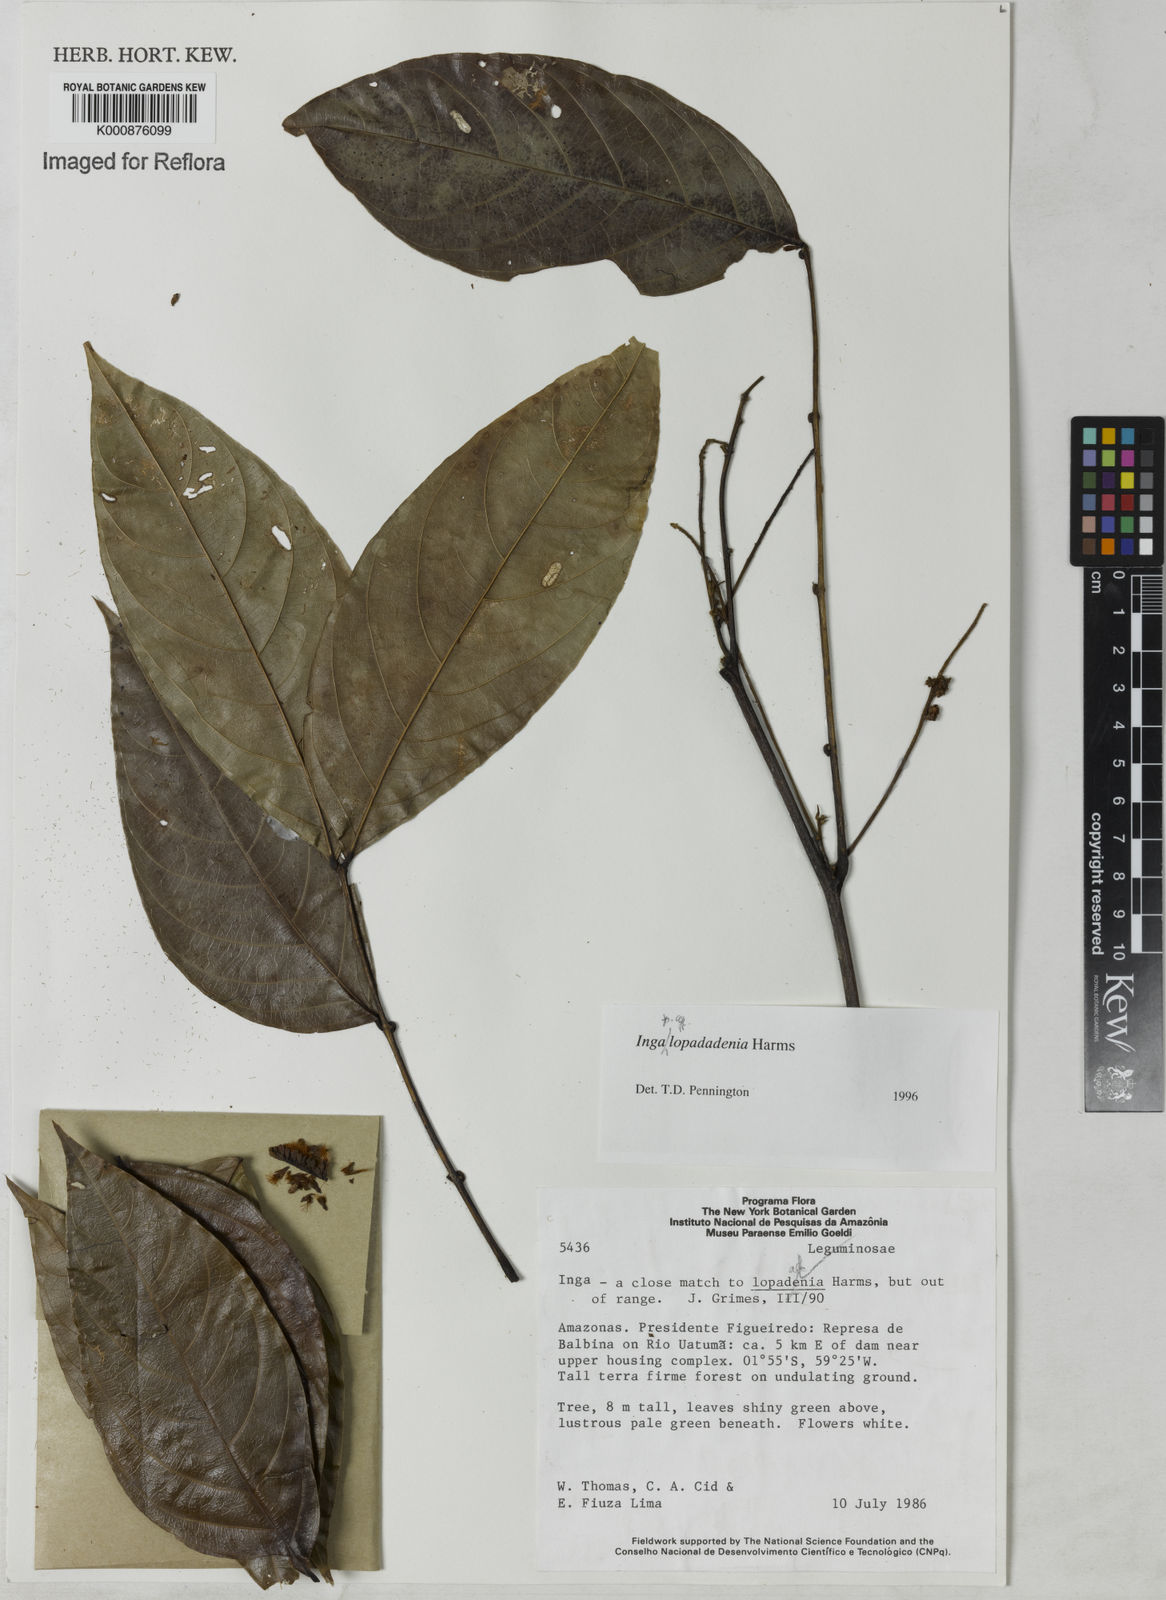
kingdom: Plantae
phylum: Tracheophyta
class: Magnoliopsida
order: Fabales
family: Fabaceae
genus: Inga
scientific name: Inga lopadadenia
